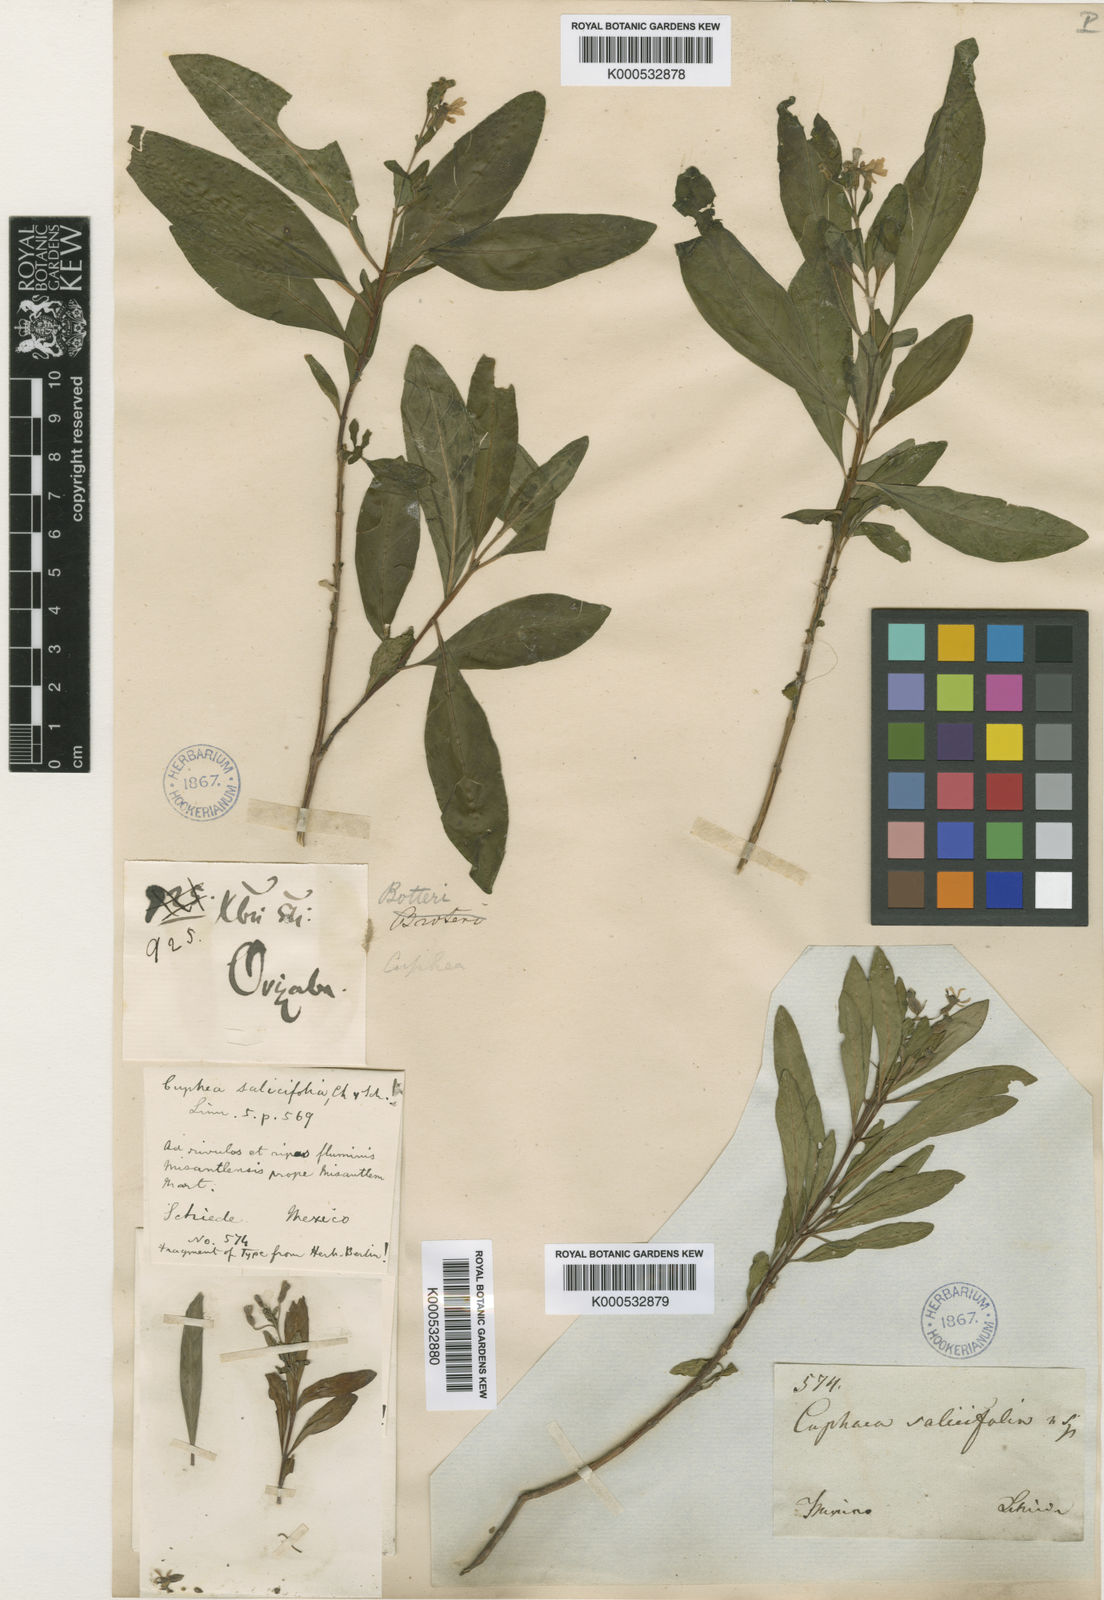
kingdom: Plantae
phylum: Tracheophyta
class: Magnoliopsida
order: Myrtales
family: Lythraceae
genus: Cuphea
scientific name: Cuphea salicifolia
